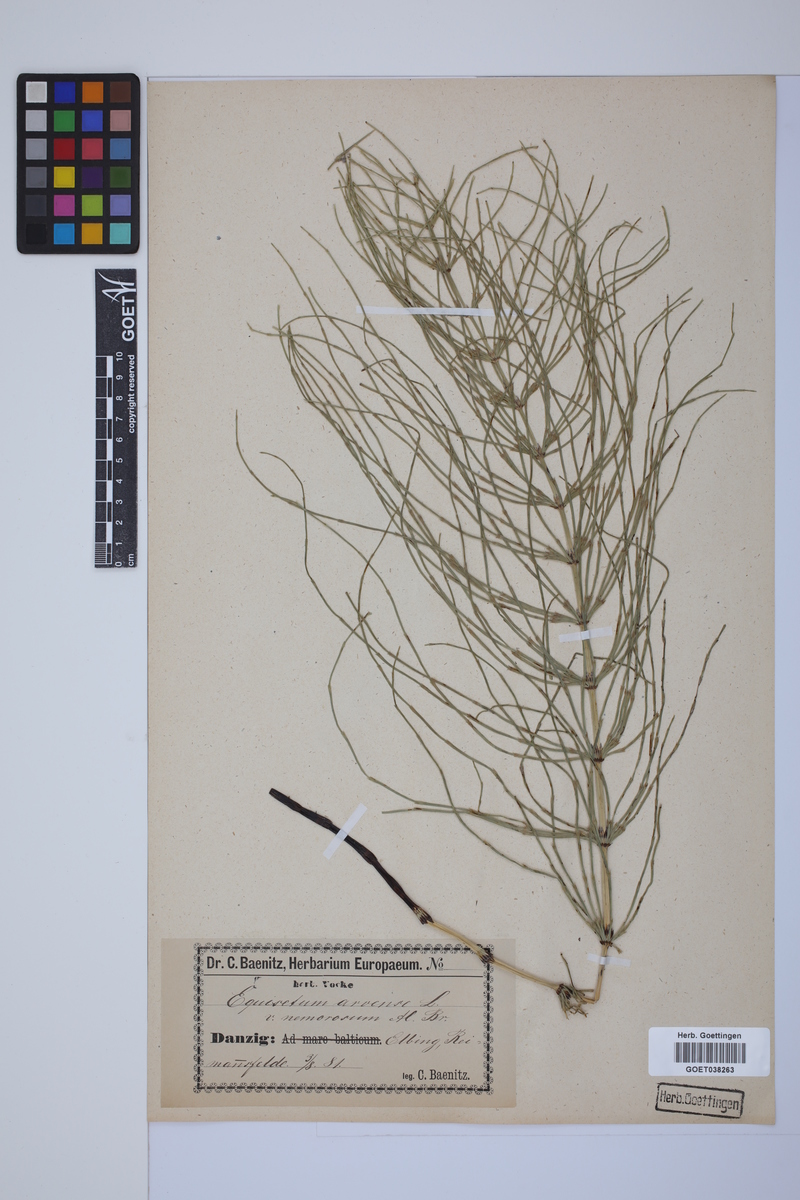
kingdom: Plantae
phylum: Tracheophyta
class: Polypodiopsida
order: Equisetales
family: Equisetaceae
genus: Equisetum
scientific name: Equisetum arvense
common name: Field horsetail
